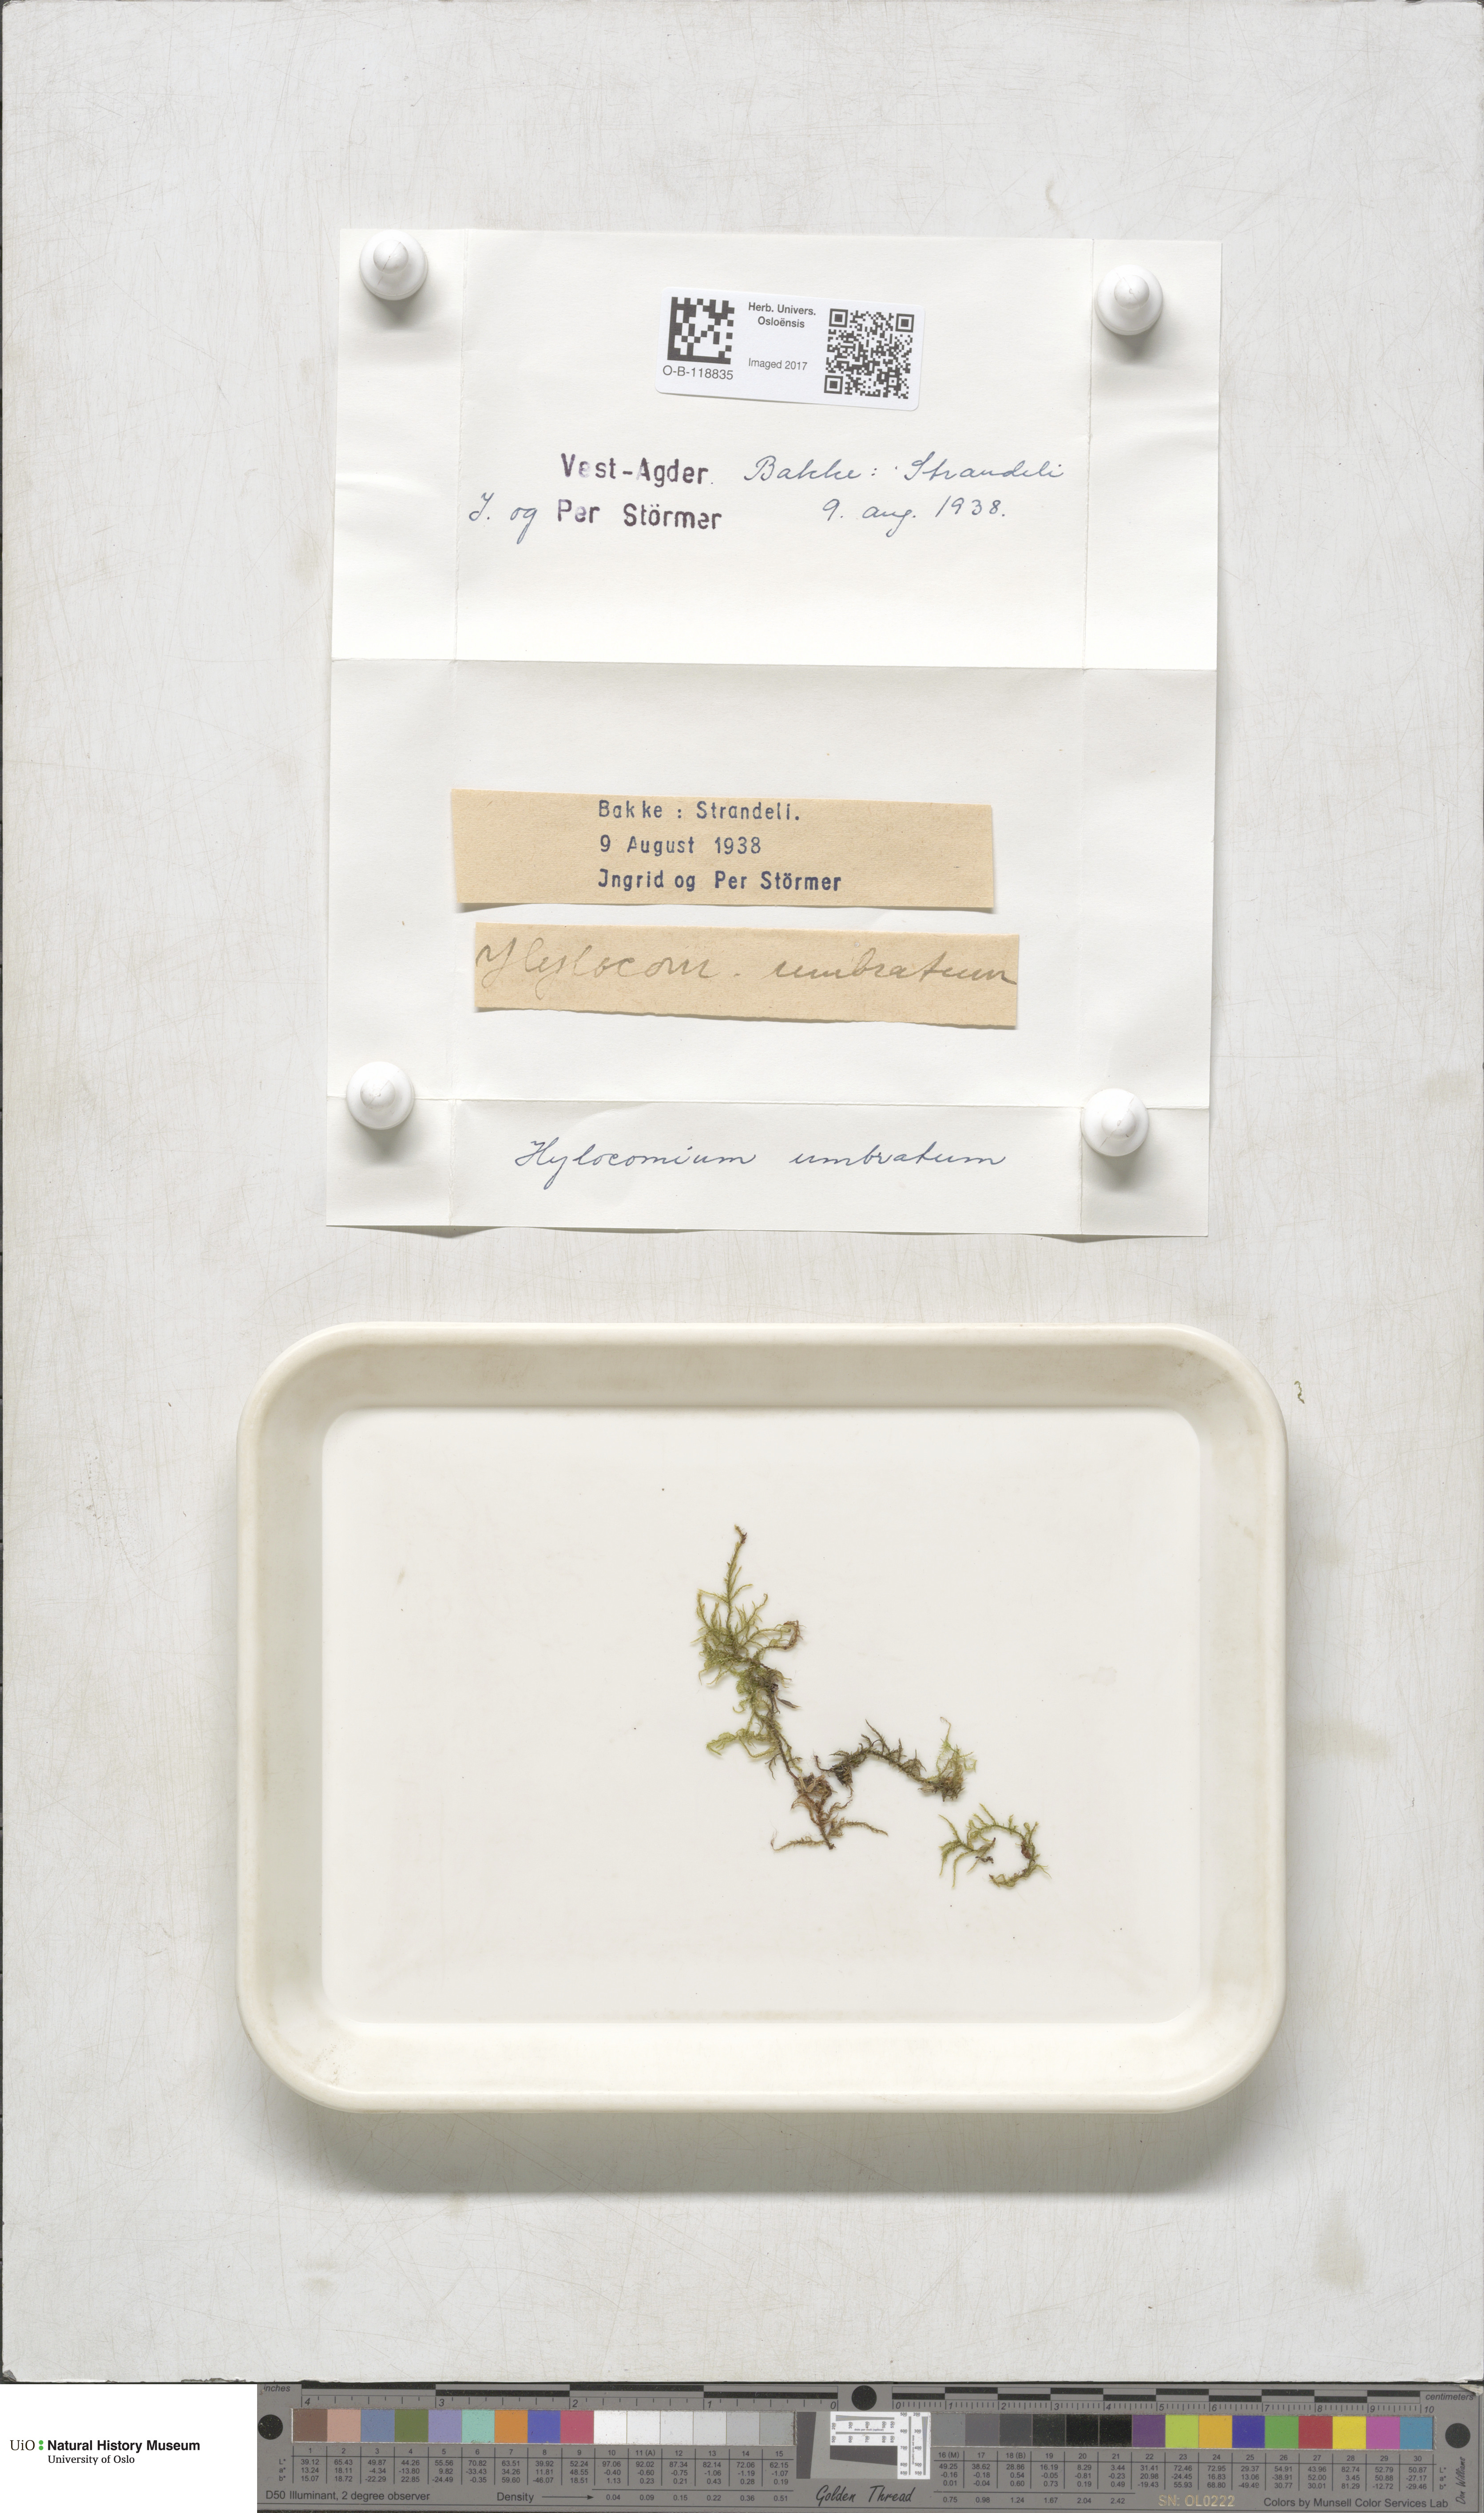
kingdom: Plantae
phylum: Bryophyta
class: Bryopsida
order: Hypnales
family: Hylocomiaceae
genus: Hylocomiastrum
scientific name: Hylocomiastrum umbratum
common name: Shaded woods moss
